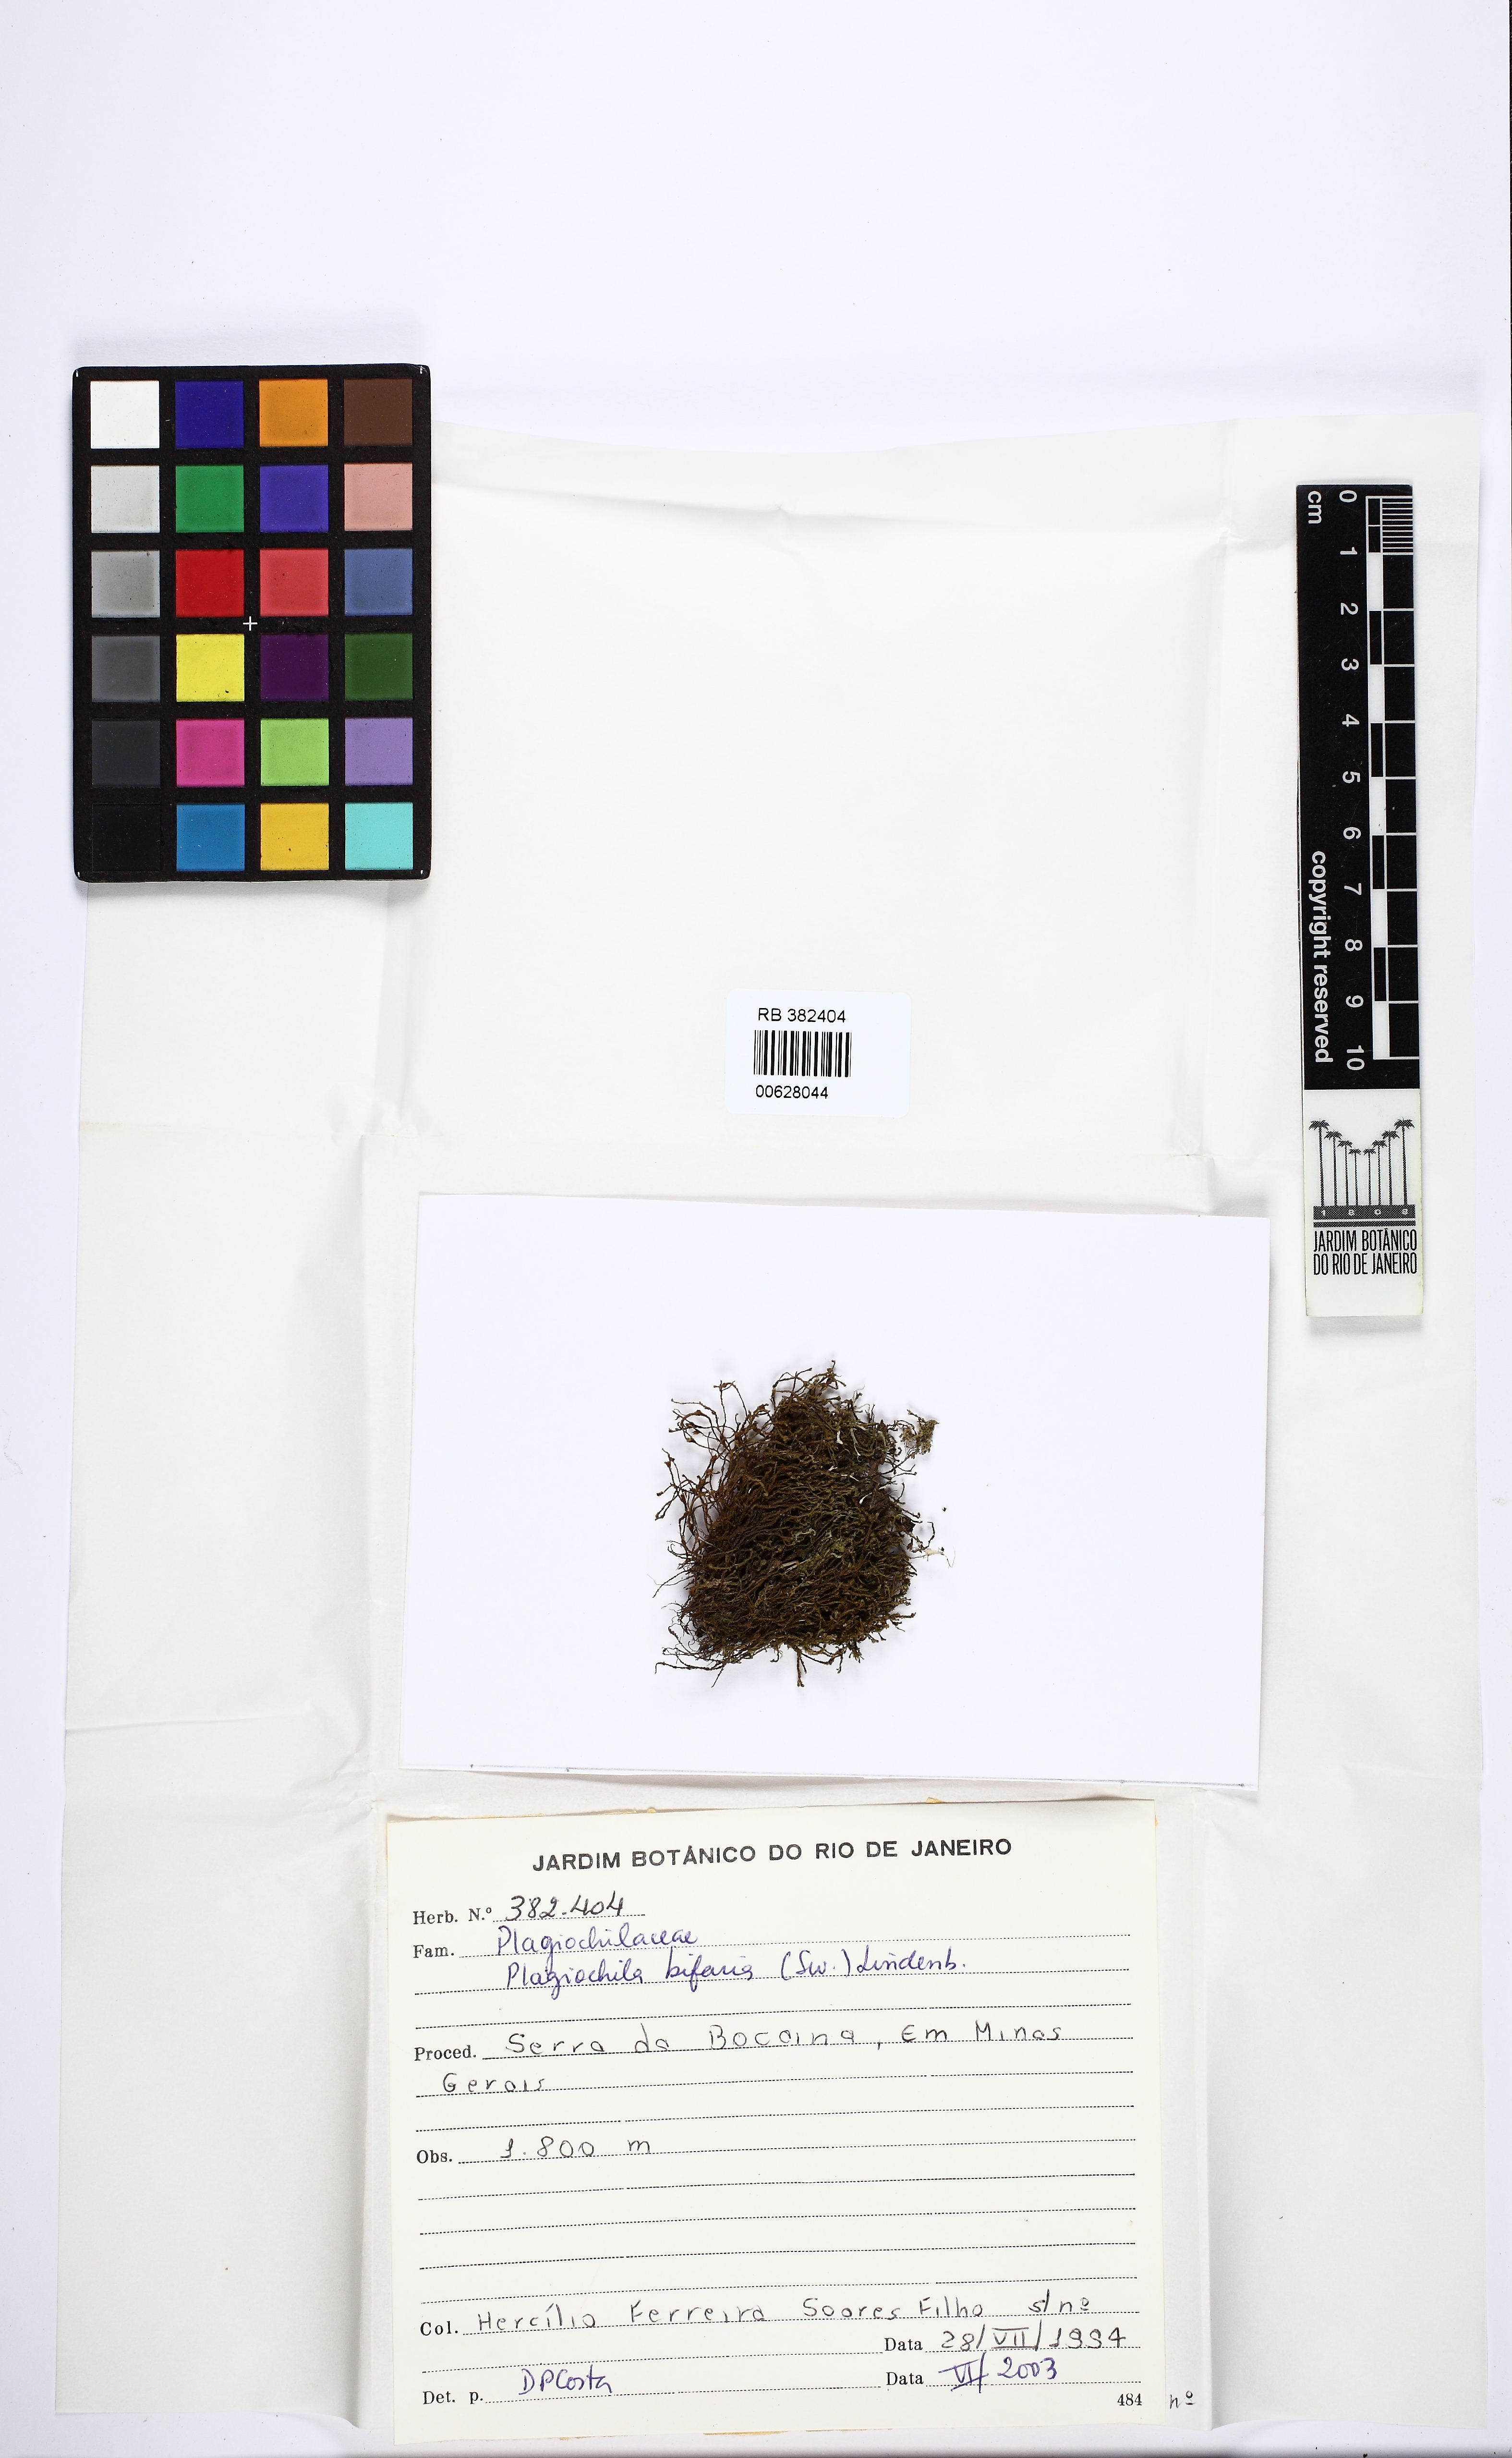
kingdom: Plantae
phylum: Marchantiophyta
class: Jungermanniopsida
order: Jungermanniales
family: Plagiochilaceae
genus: Plagiochila
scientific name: Plagiochila bifaria
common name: Killarney featherwort
